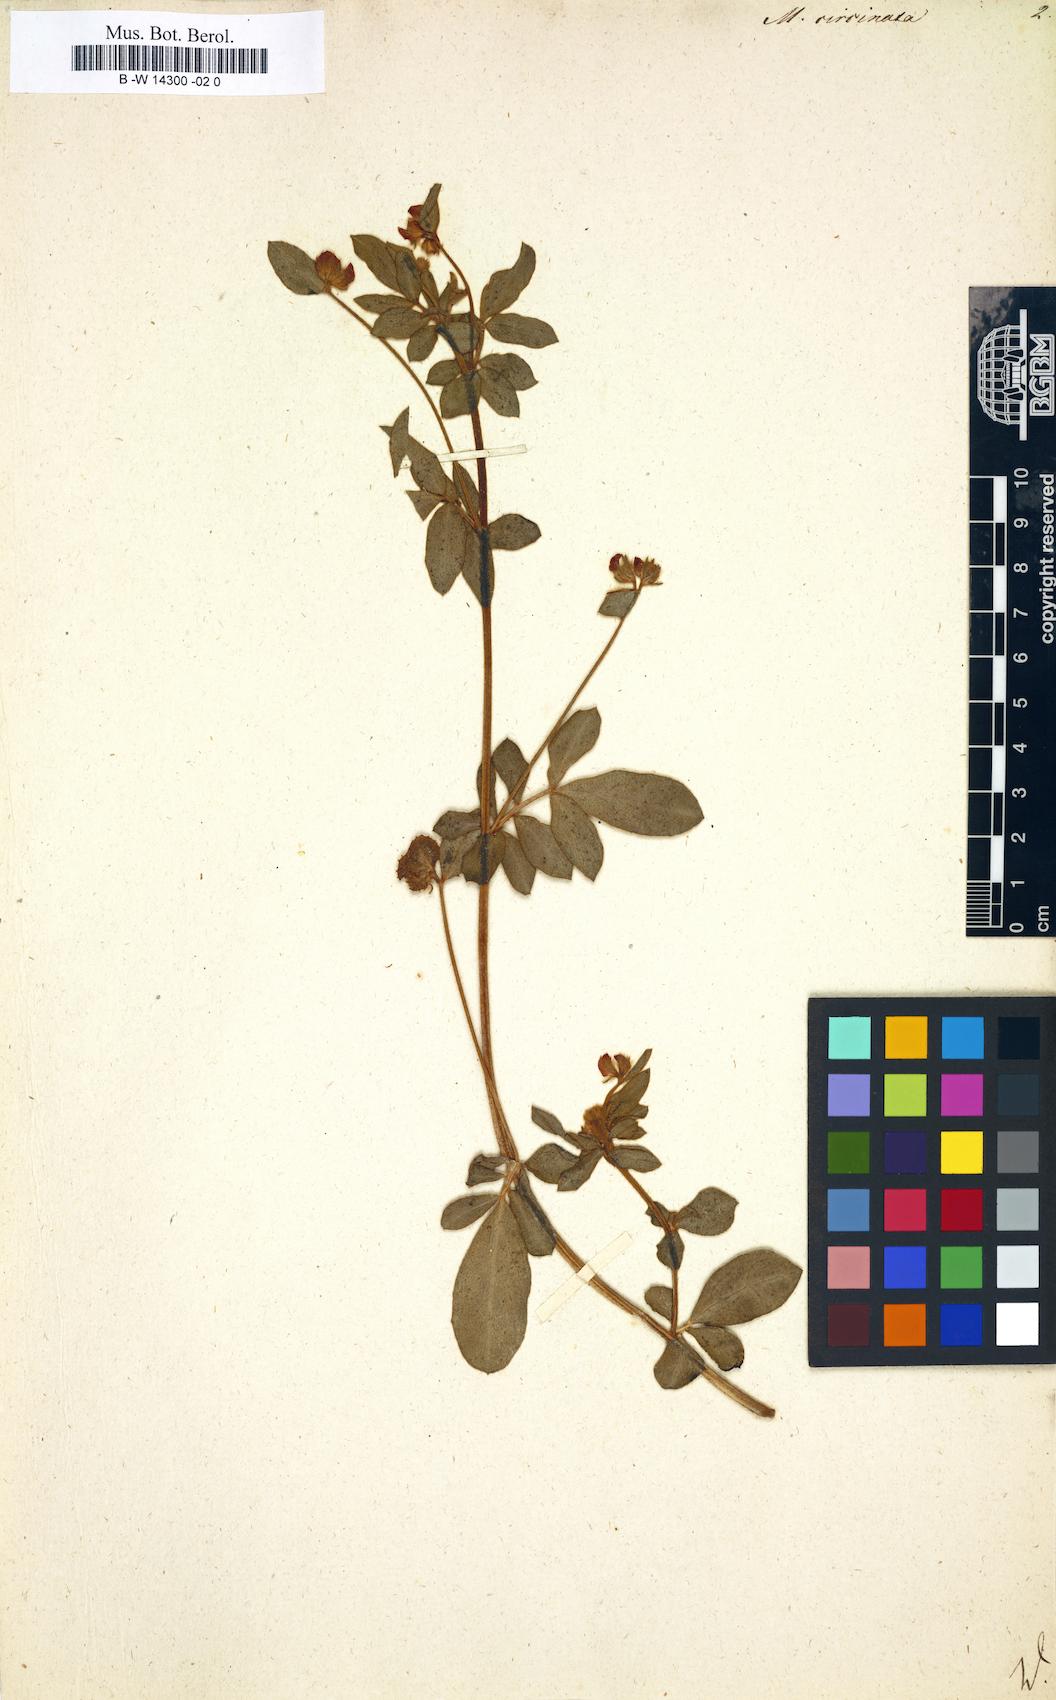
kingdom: Plantae
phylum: Tracheophyta
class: Magnoliopsida
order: Fabales
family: Fabaceae
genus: Anthyllis
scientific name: Anthyllis circinnata
